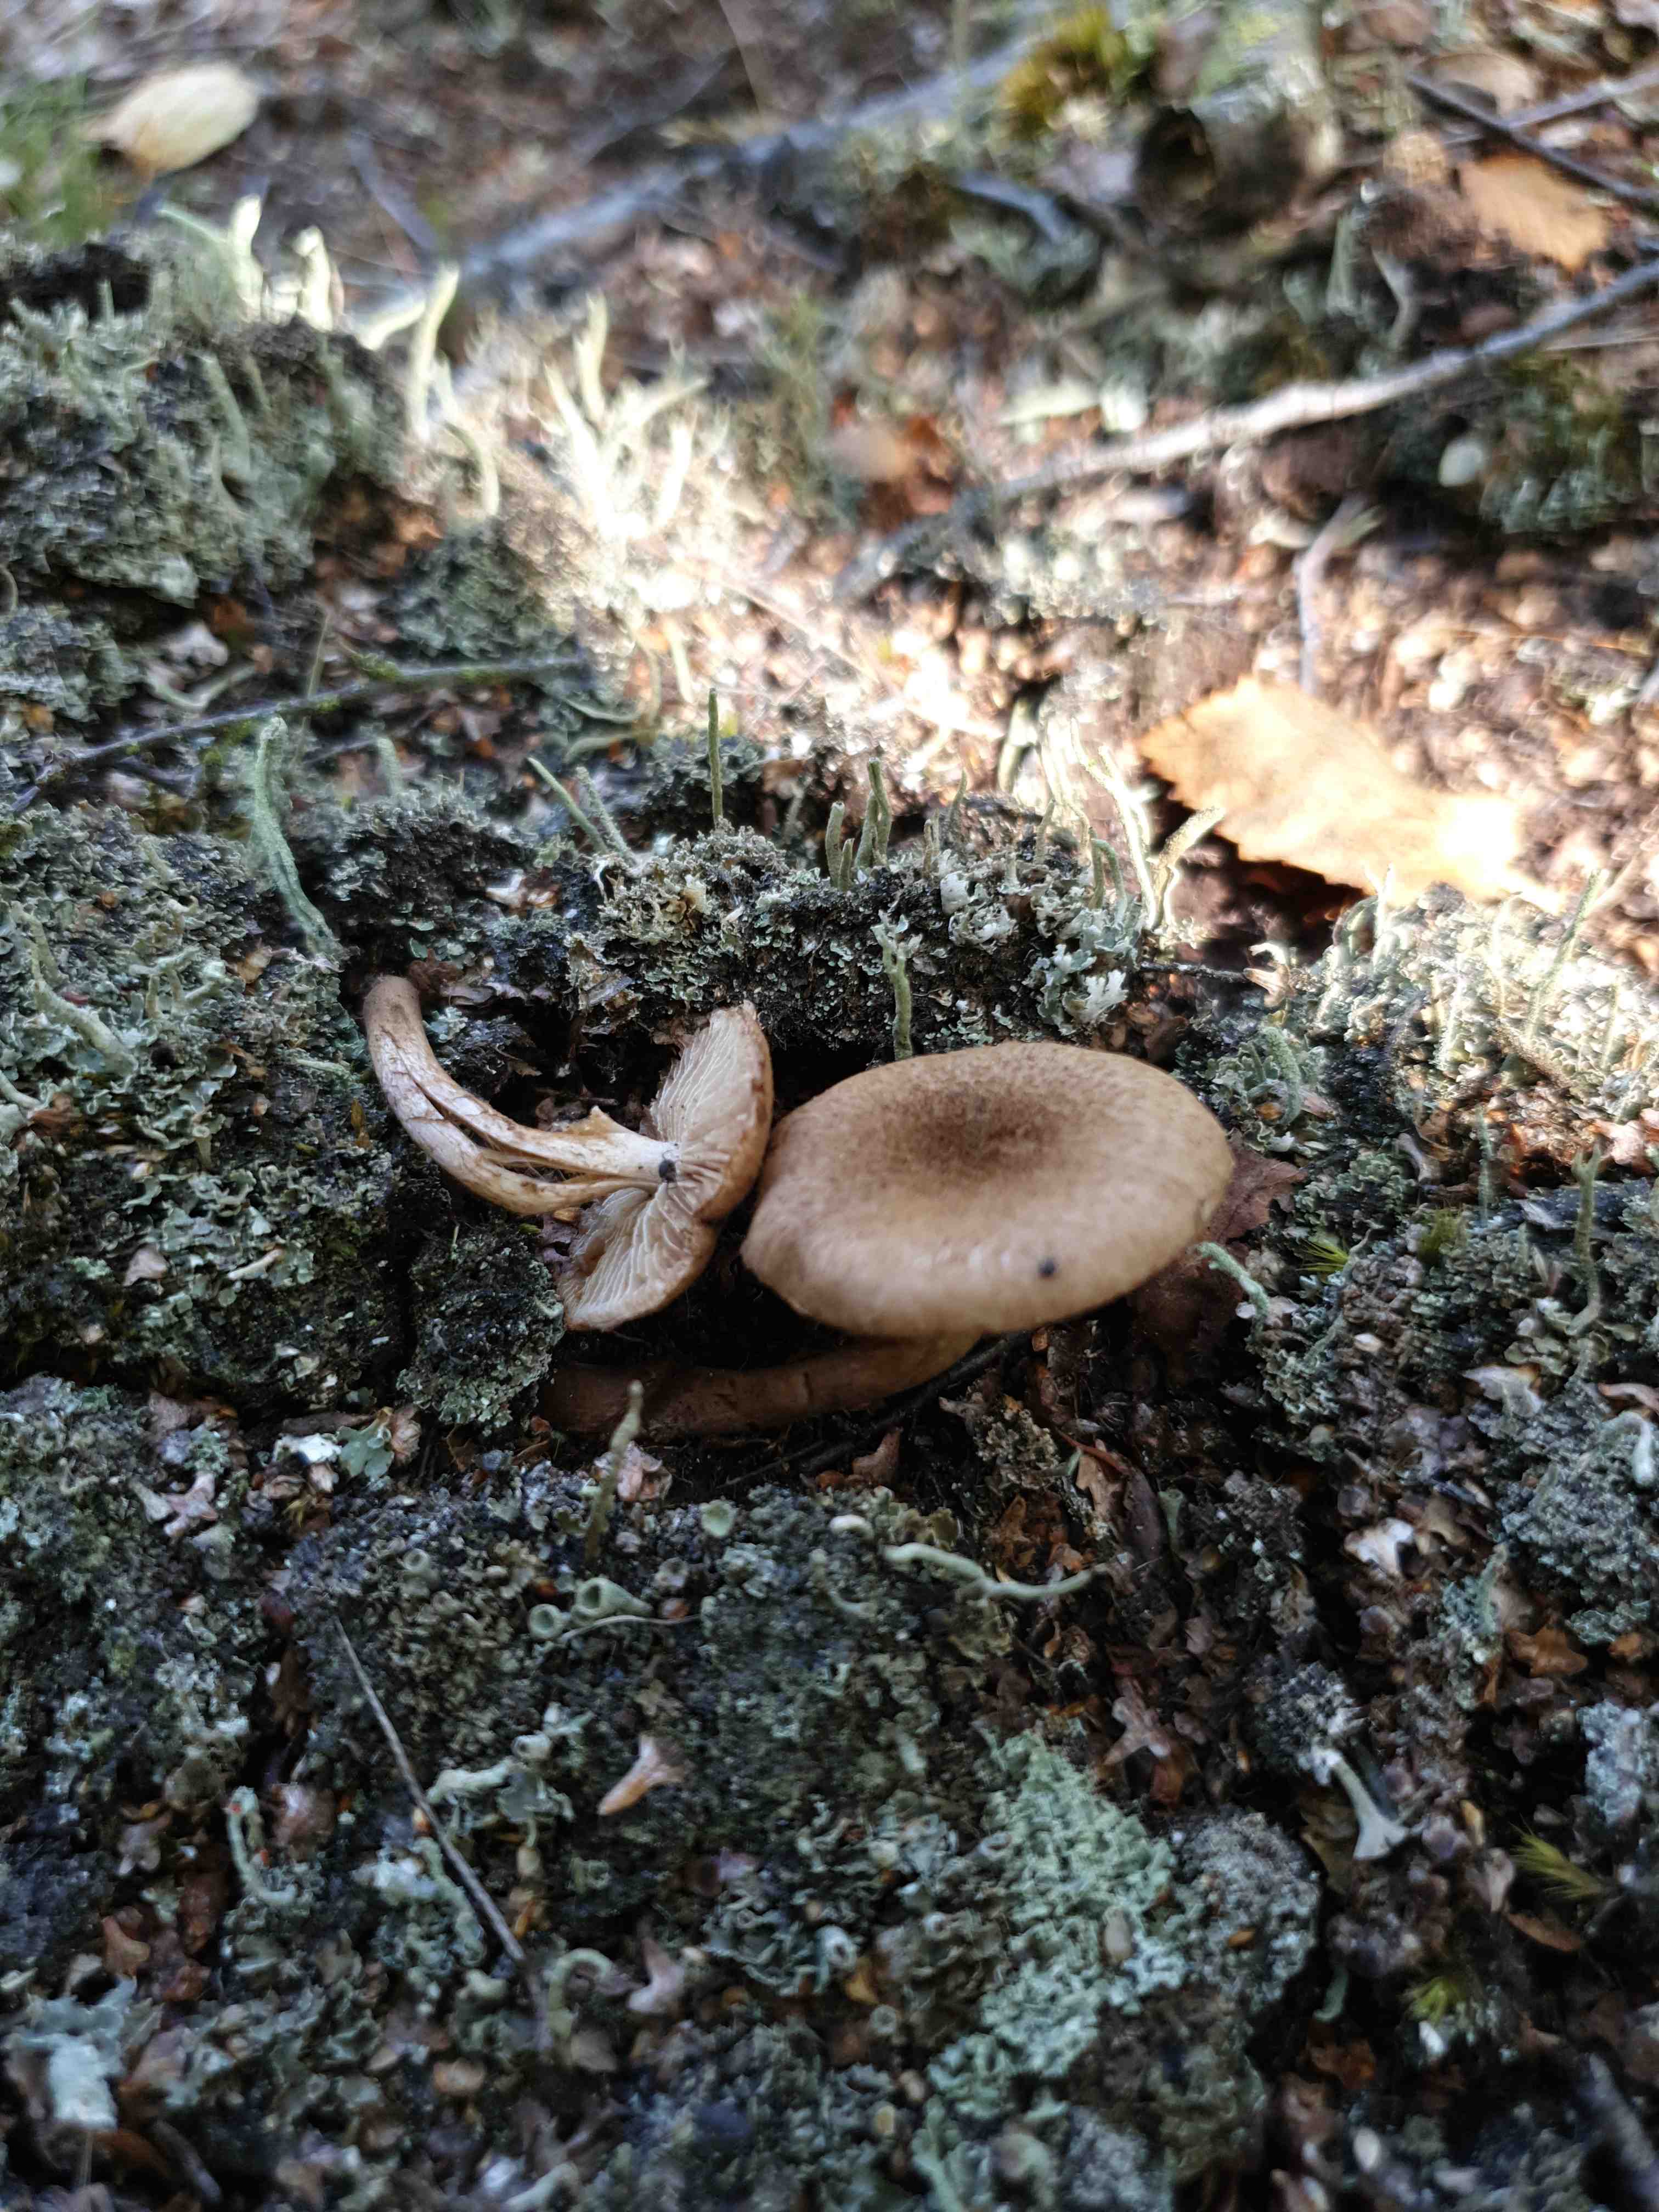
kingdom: Fungi
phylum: Basidiomycota
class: Agaricomycetes
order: Agaricales
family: Inocybaceae
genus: Inocybe
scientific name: Inocybe
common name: trævlhat
